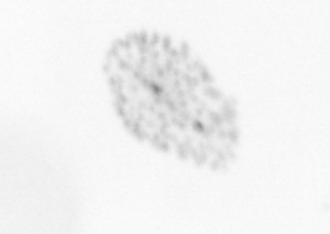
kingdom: Chromista
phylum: Ochrophyta
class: Bacillariophyceae
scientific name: Bacillariophyceae
